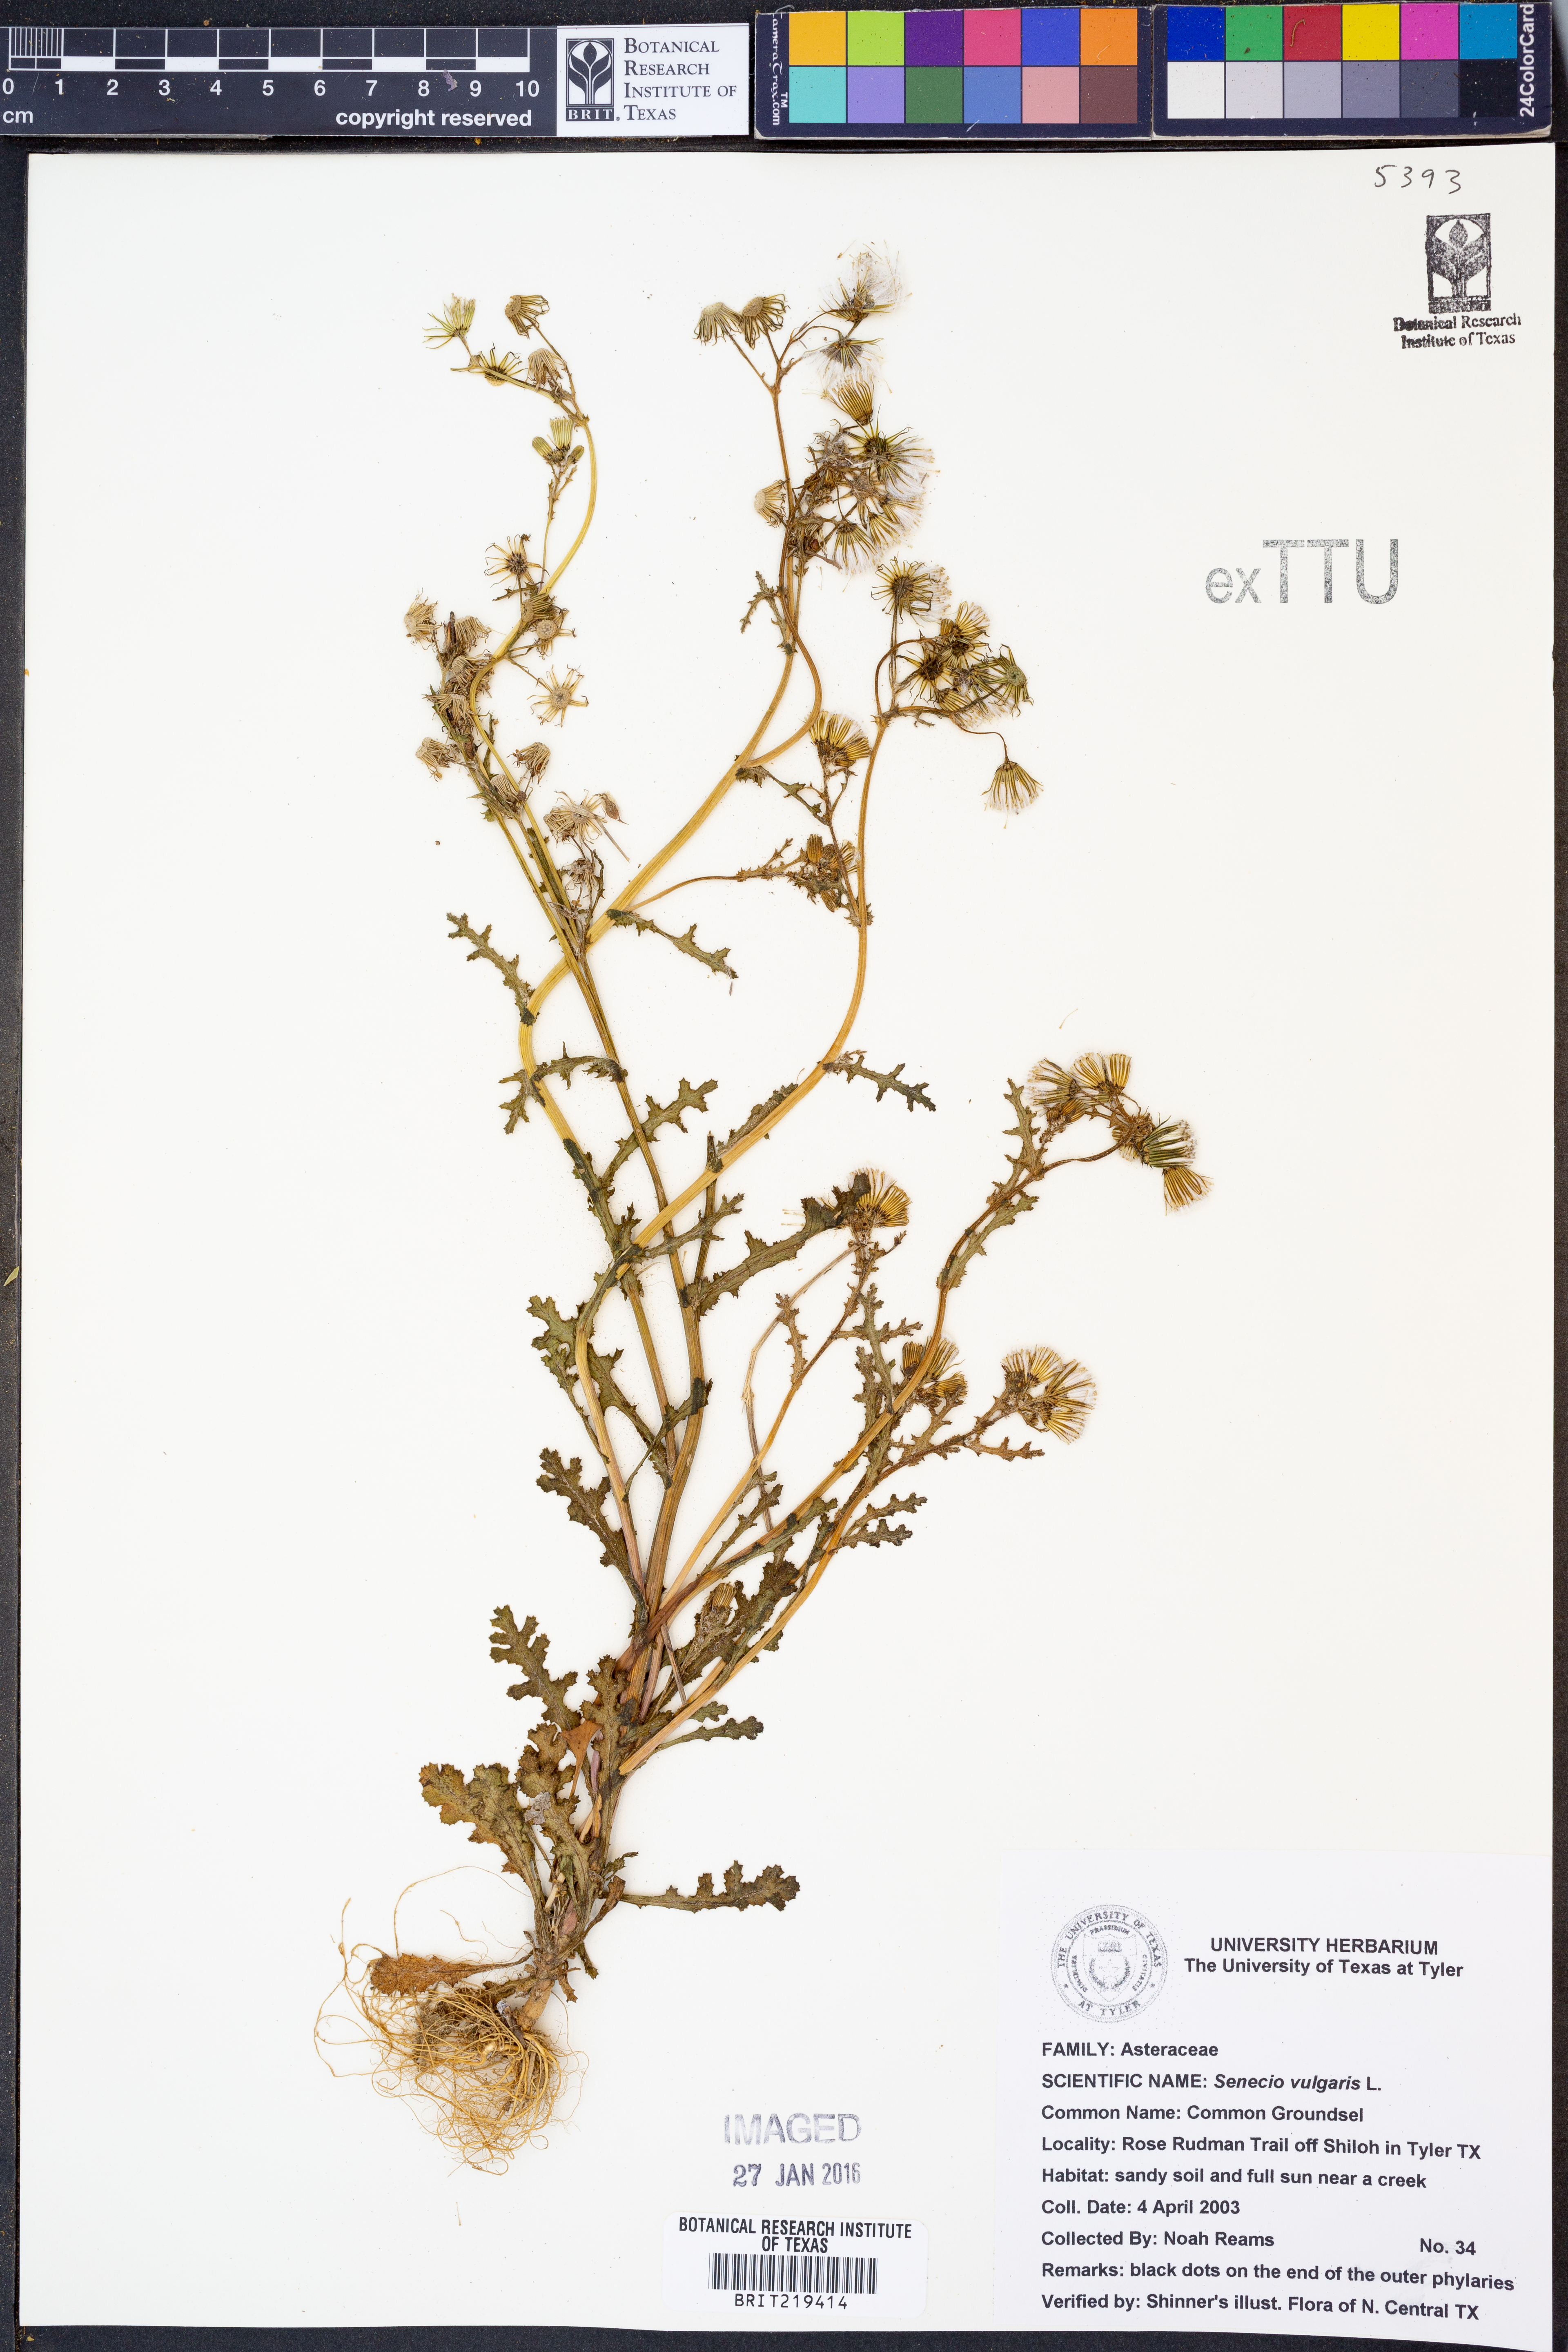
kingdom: Plantae
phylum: Tracheophyta
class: Magnoliopsida
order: Asterales
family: Asteraceae
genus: Senecio
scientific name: Senecio vulgaris
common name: Old-man-in-the-spring
